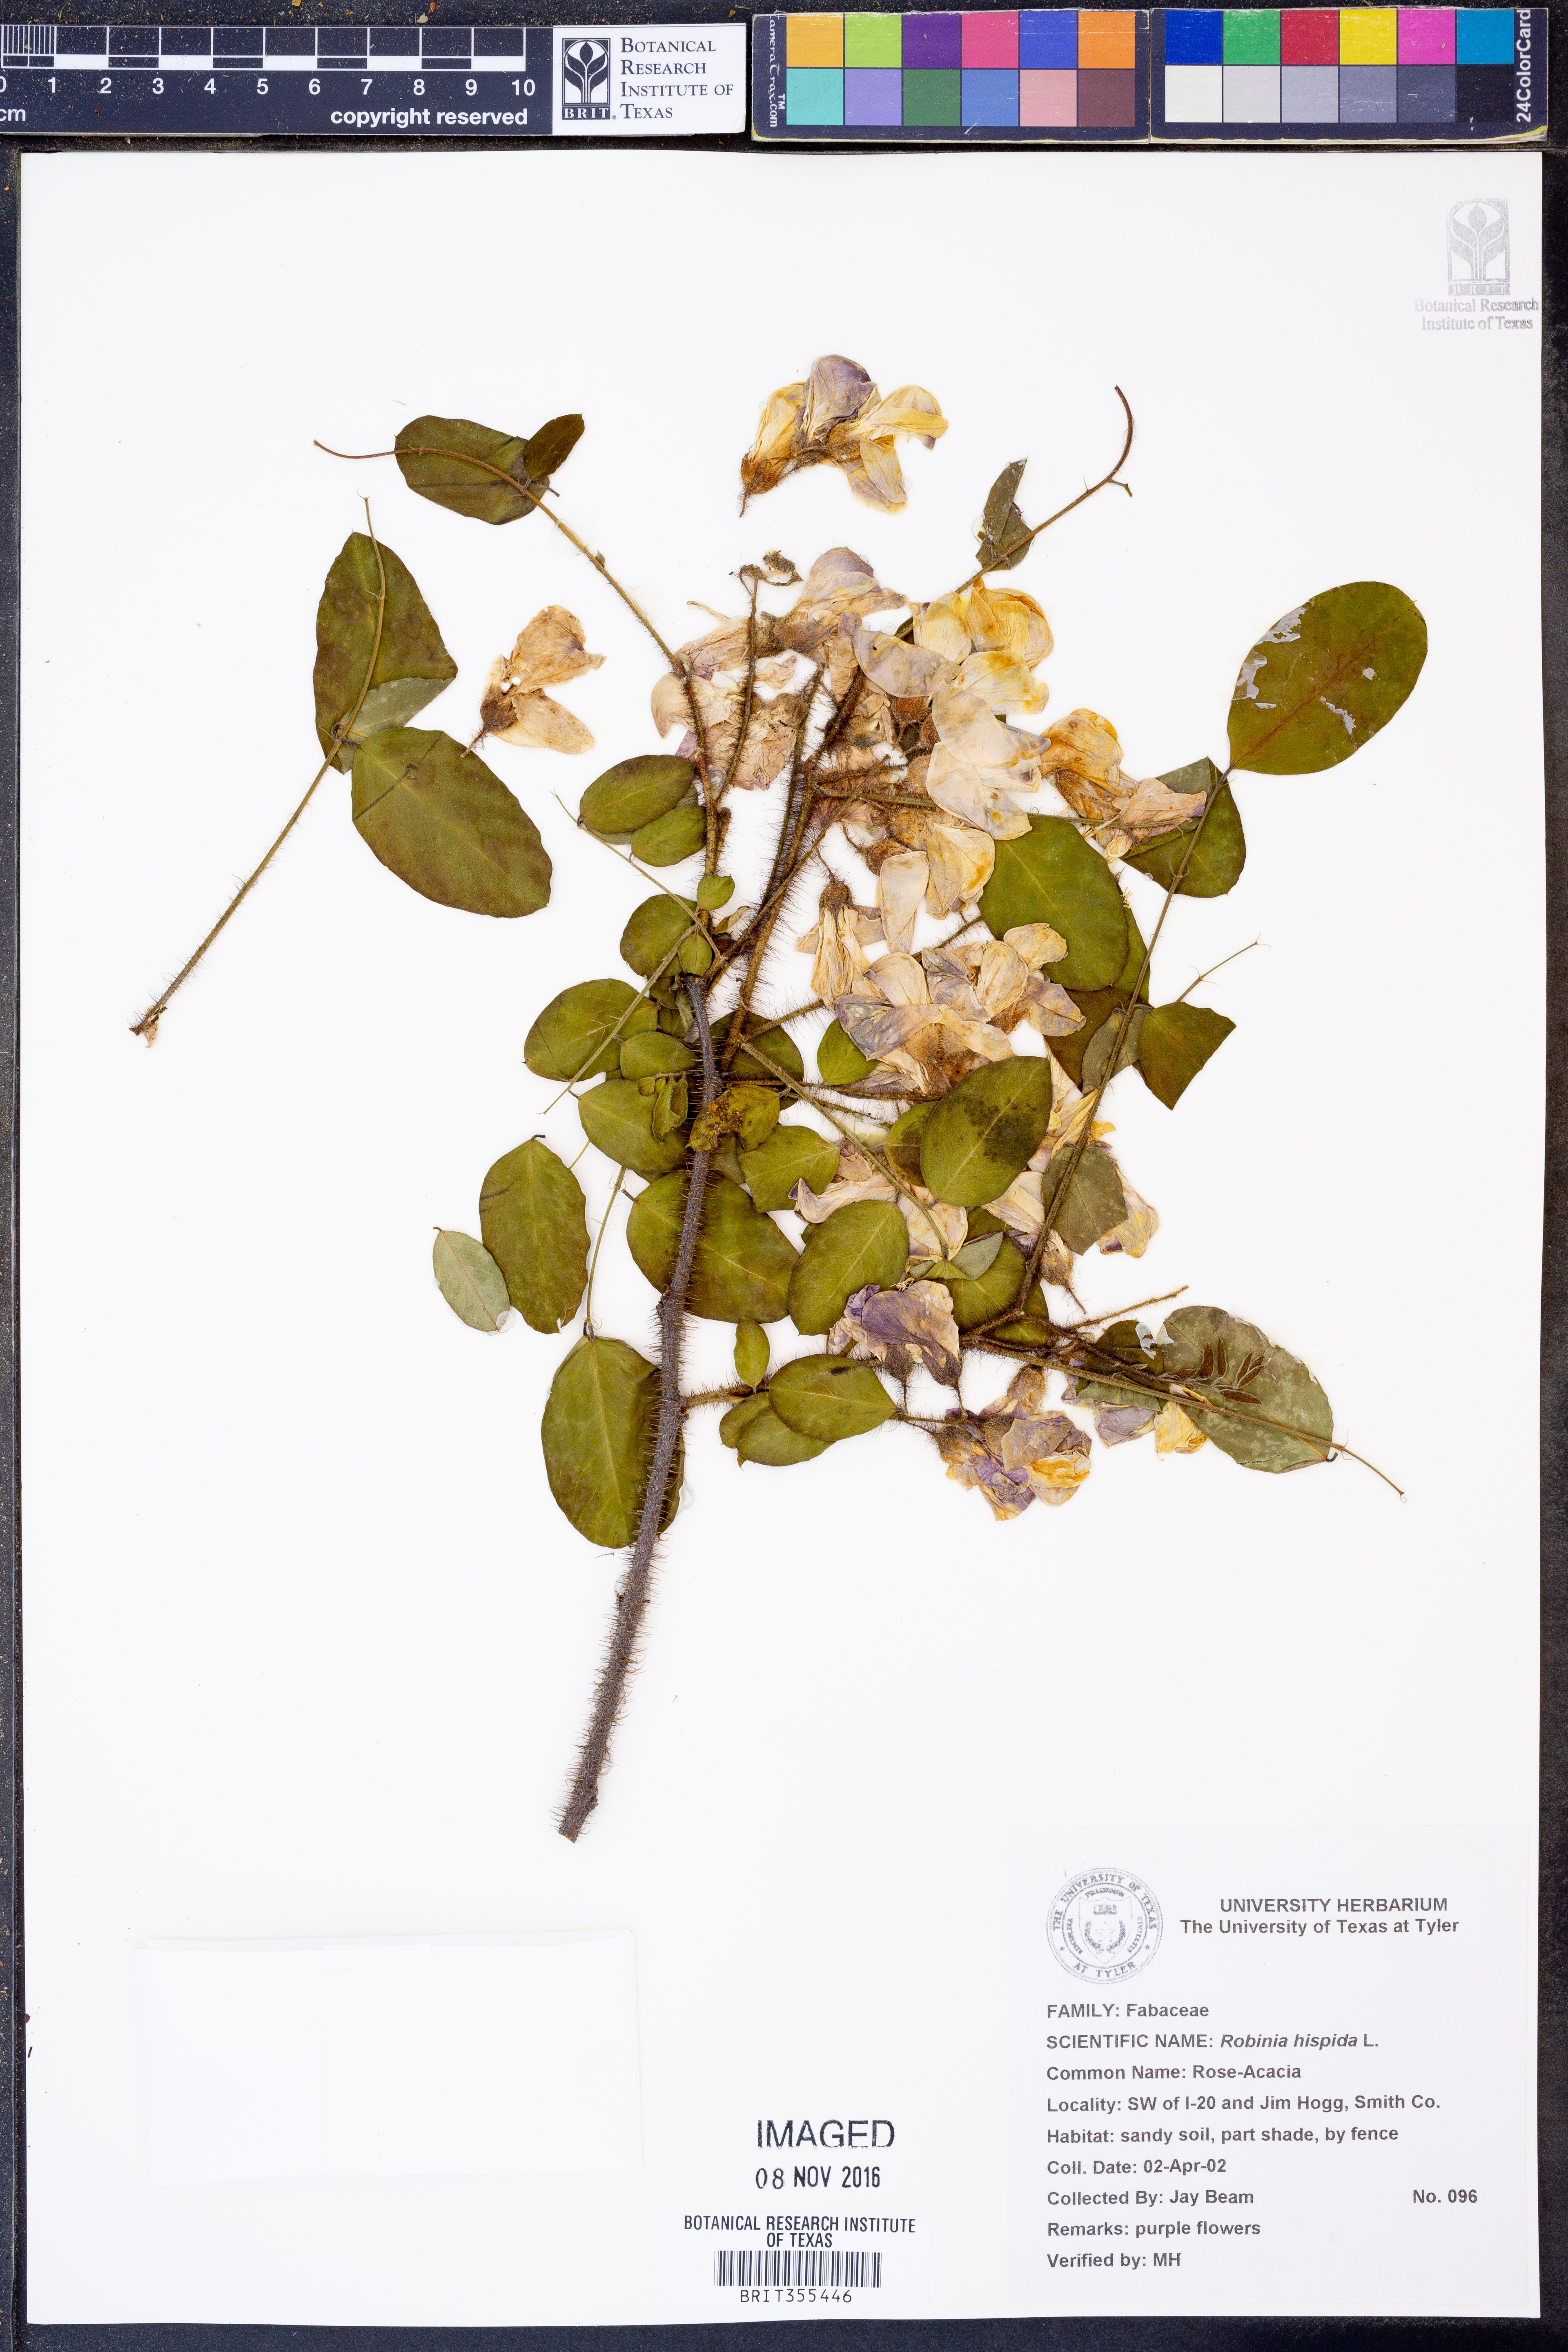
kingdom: Plantae
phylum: Tracheophyta
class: Magnoliopsida
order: Fabales
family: Fabaceae
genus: Robinia
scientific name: Robinia hispida
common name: Bristly locust
